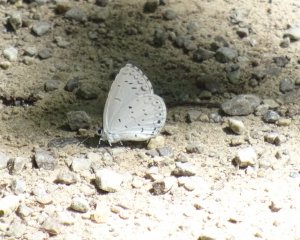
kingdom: Animalia
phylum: Arthropoda
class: Insecta
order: Lepidoptera
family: Lycaenidae
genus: Cyaniris
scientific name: Cyaniris neglecta
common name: Summer Azure
